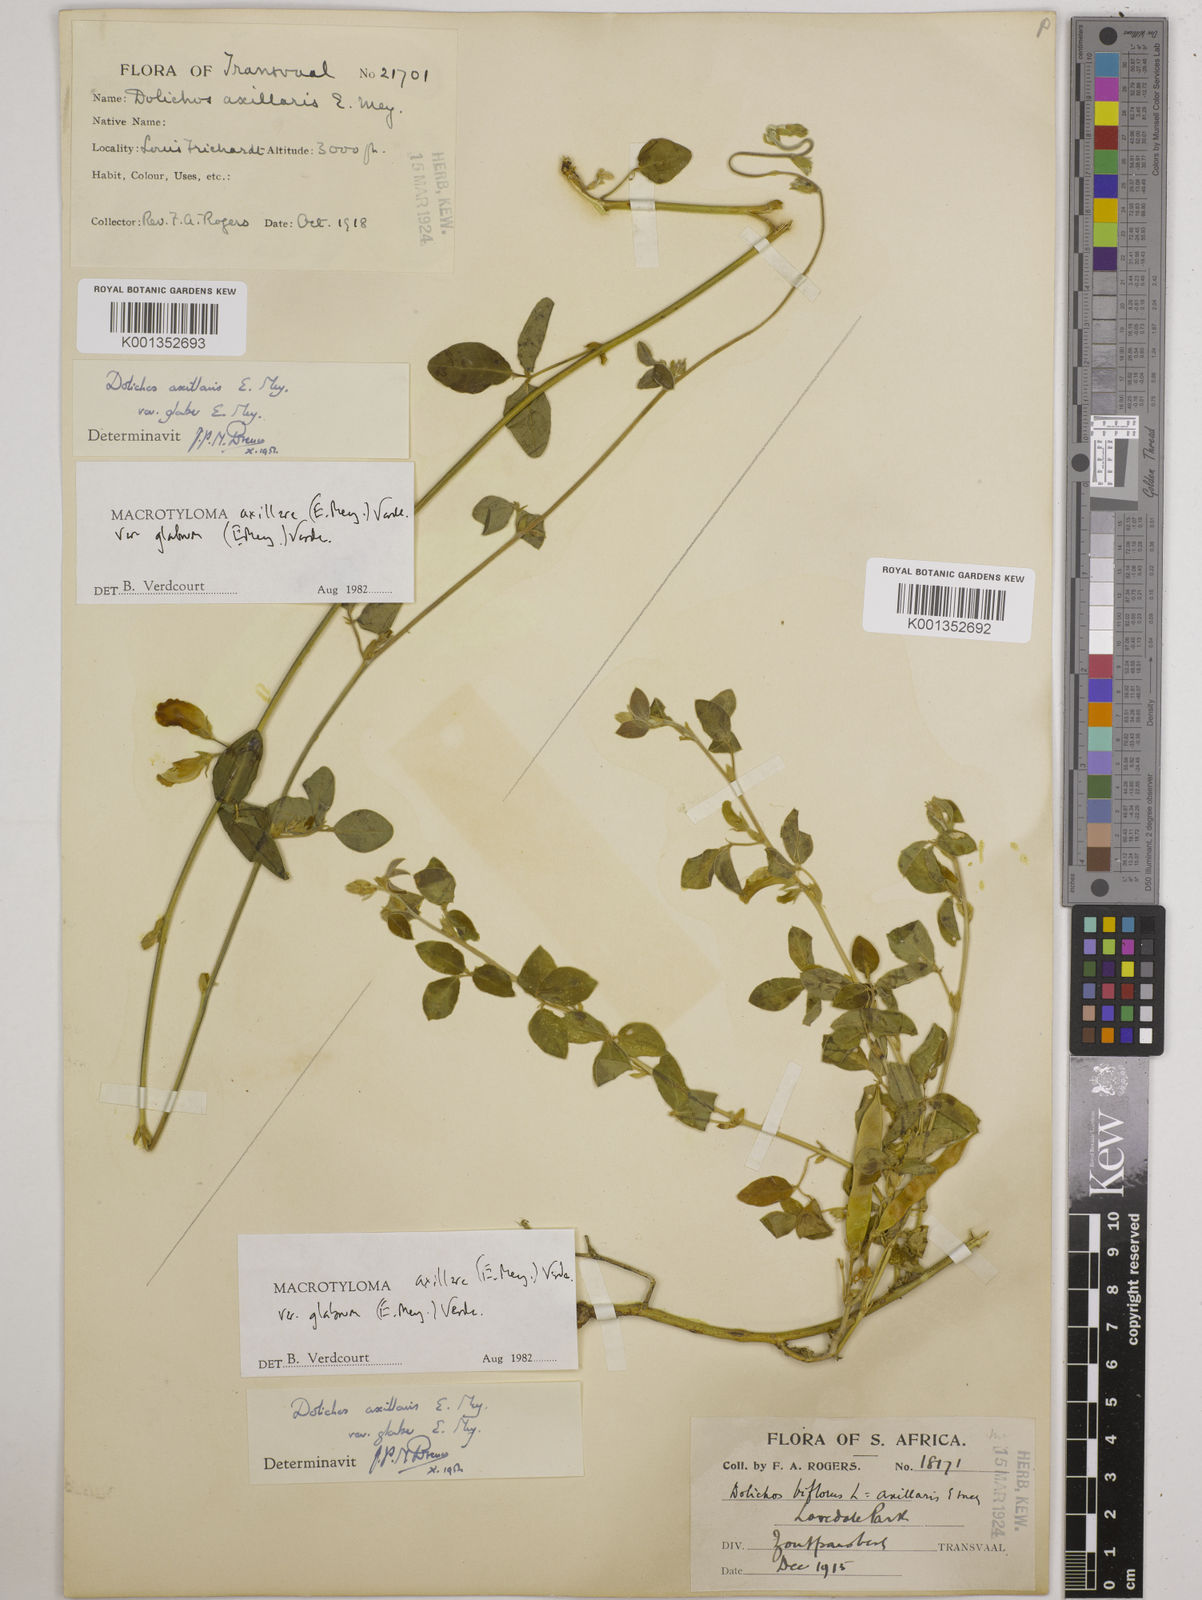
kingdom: Plantae
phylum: Tracheophyta
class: Magnoliopsida
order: Fabales
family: Fabaceae
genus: Macrotyloma
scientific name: Macrotyloma
